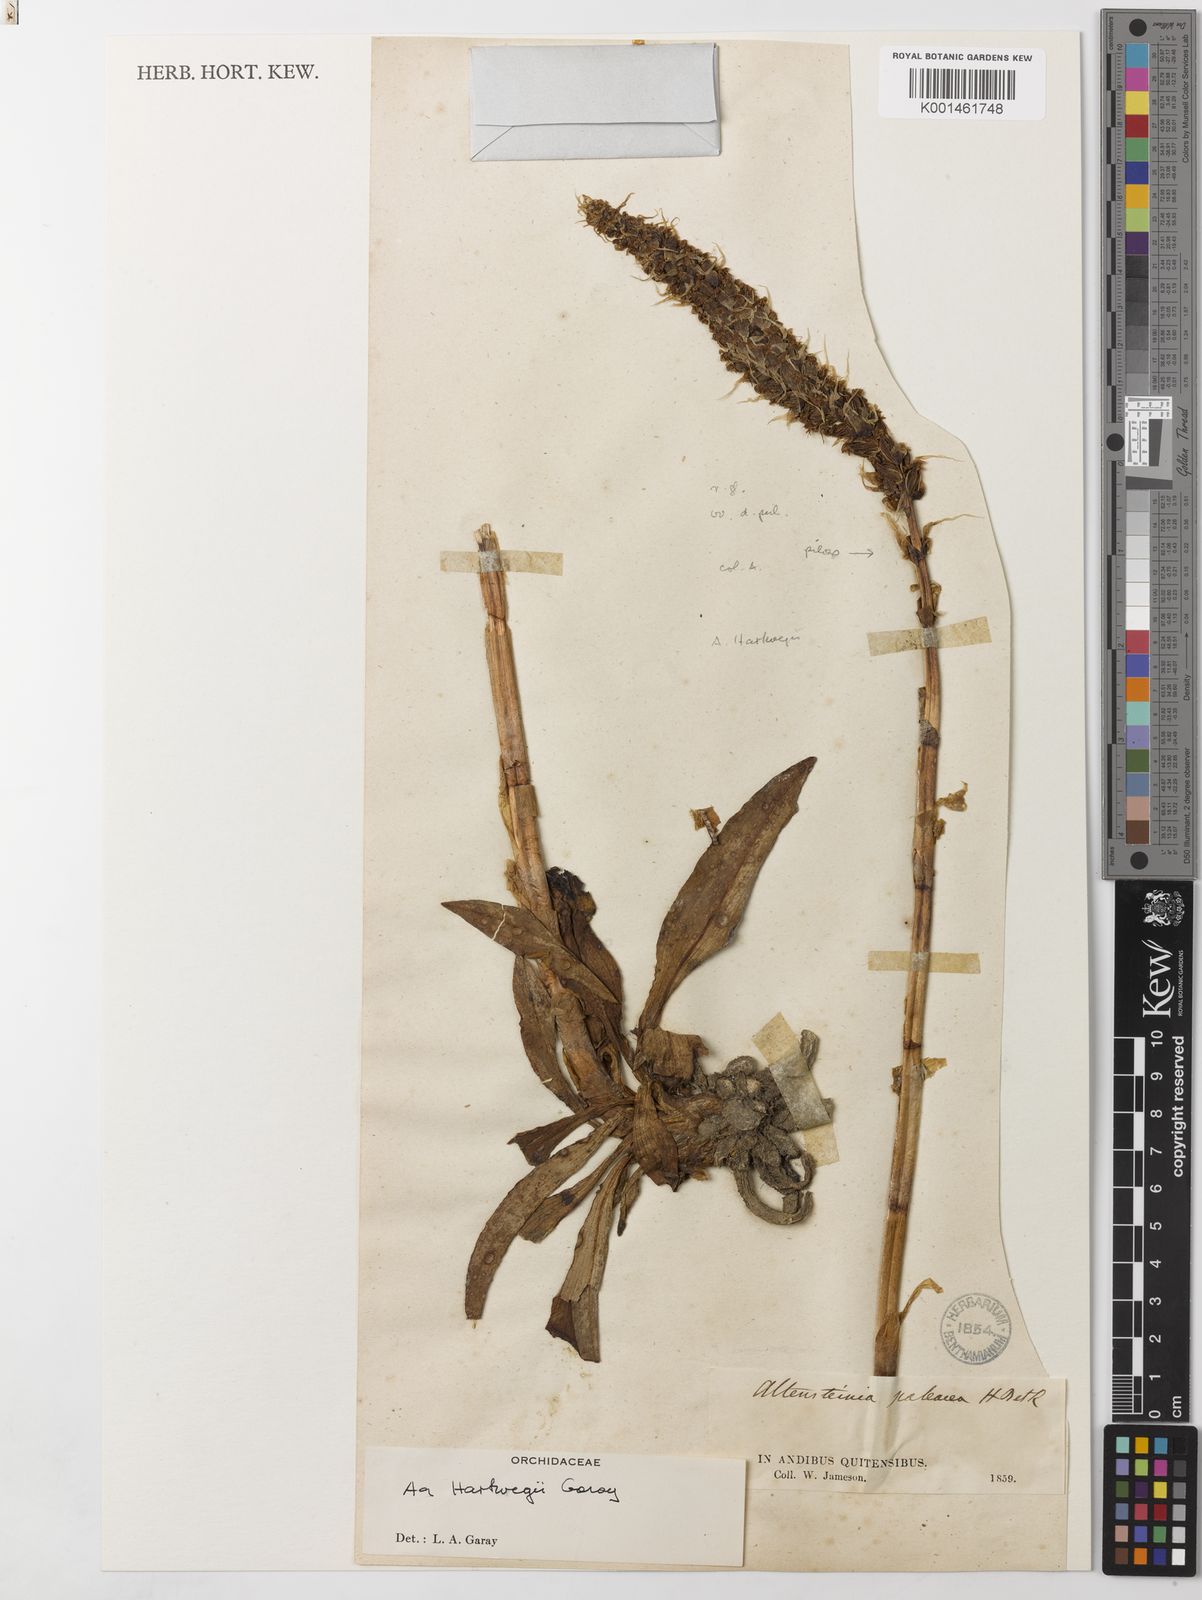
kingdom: Plantae
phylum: Tracheophyta
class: Liliopsida
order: Asparagales
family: Orchidaceae
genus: Aa
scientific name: Aa maderoi
